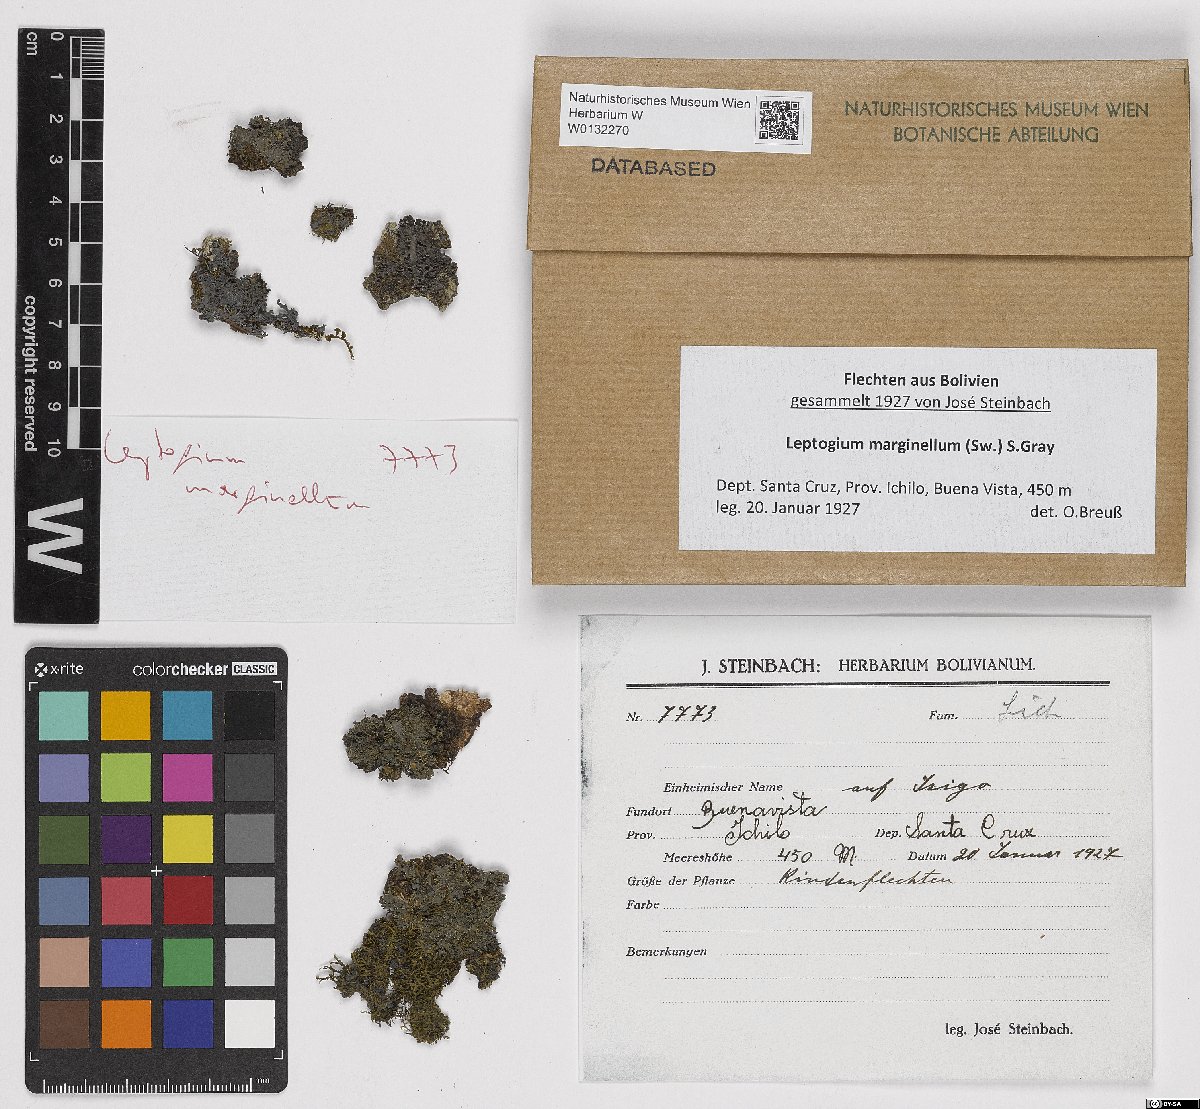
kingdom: Fungi
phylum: Ascomycota
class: Lecanoromycetes
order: Peltigerales
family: Collemataceae
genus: Leptogium
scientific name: Leptogium marginellum
